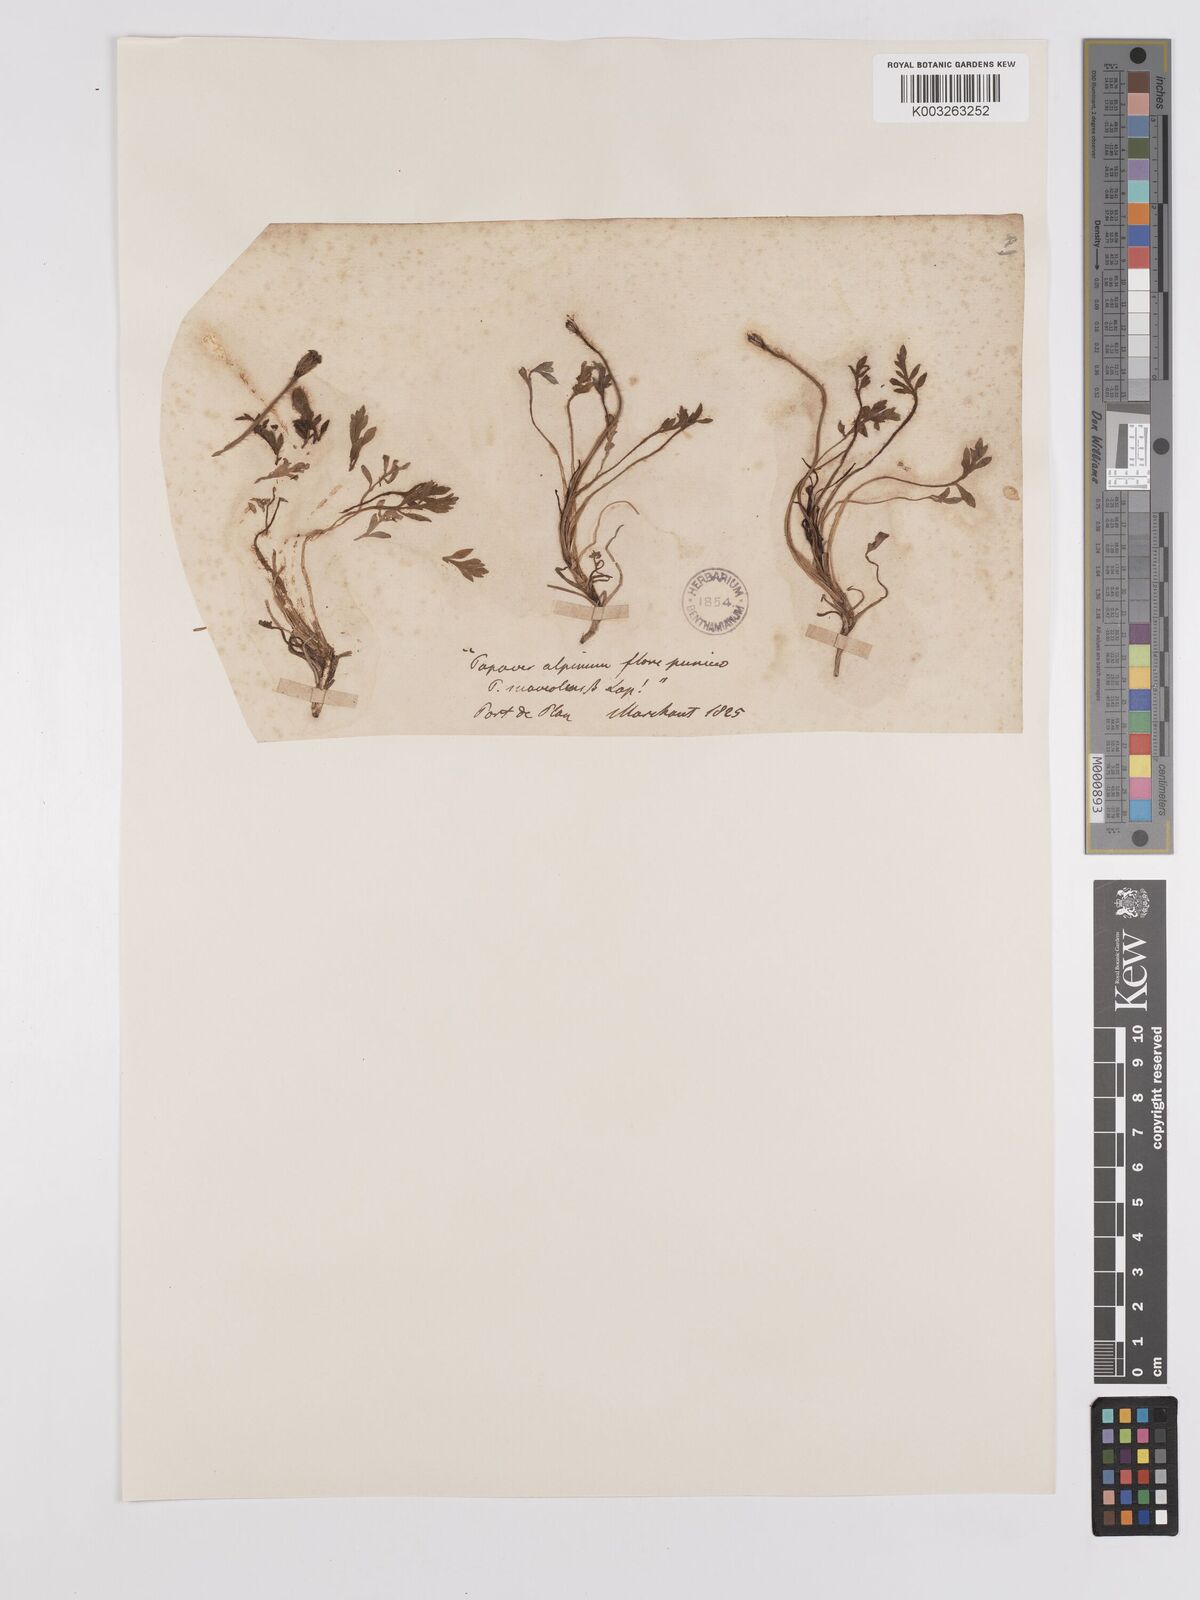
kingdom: Plantae
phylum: Tracheophyta
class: Magnoliopsida
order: Ranunculales
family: Papaveraceae
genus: Papaver
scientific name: Papaver radicatum
